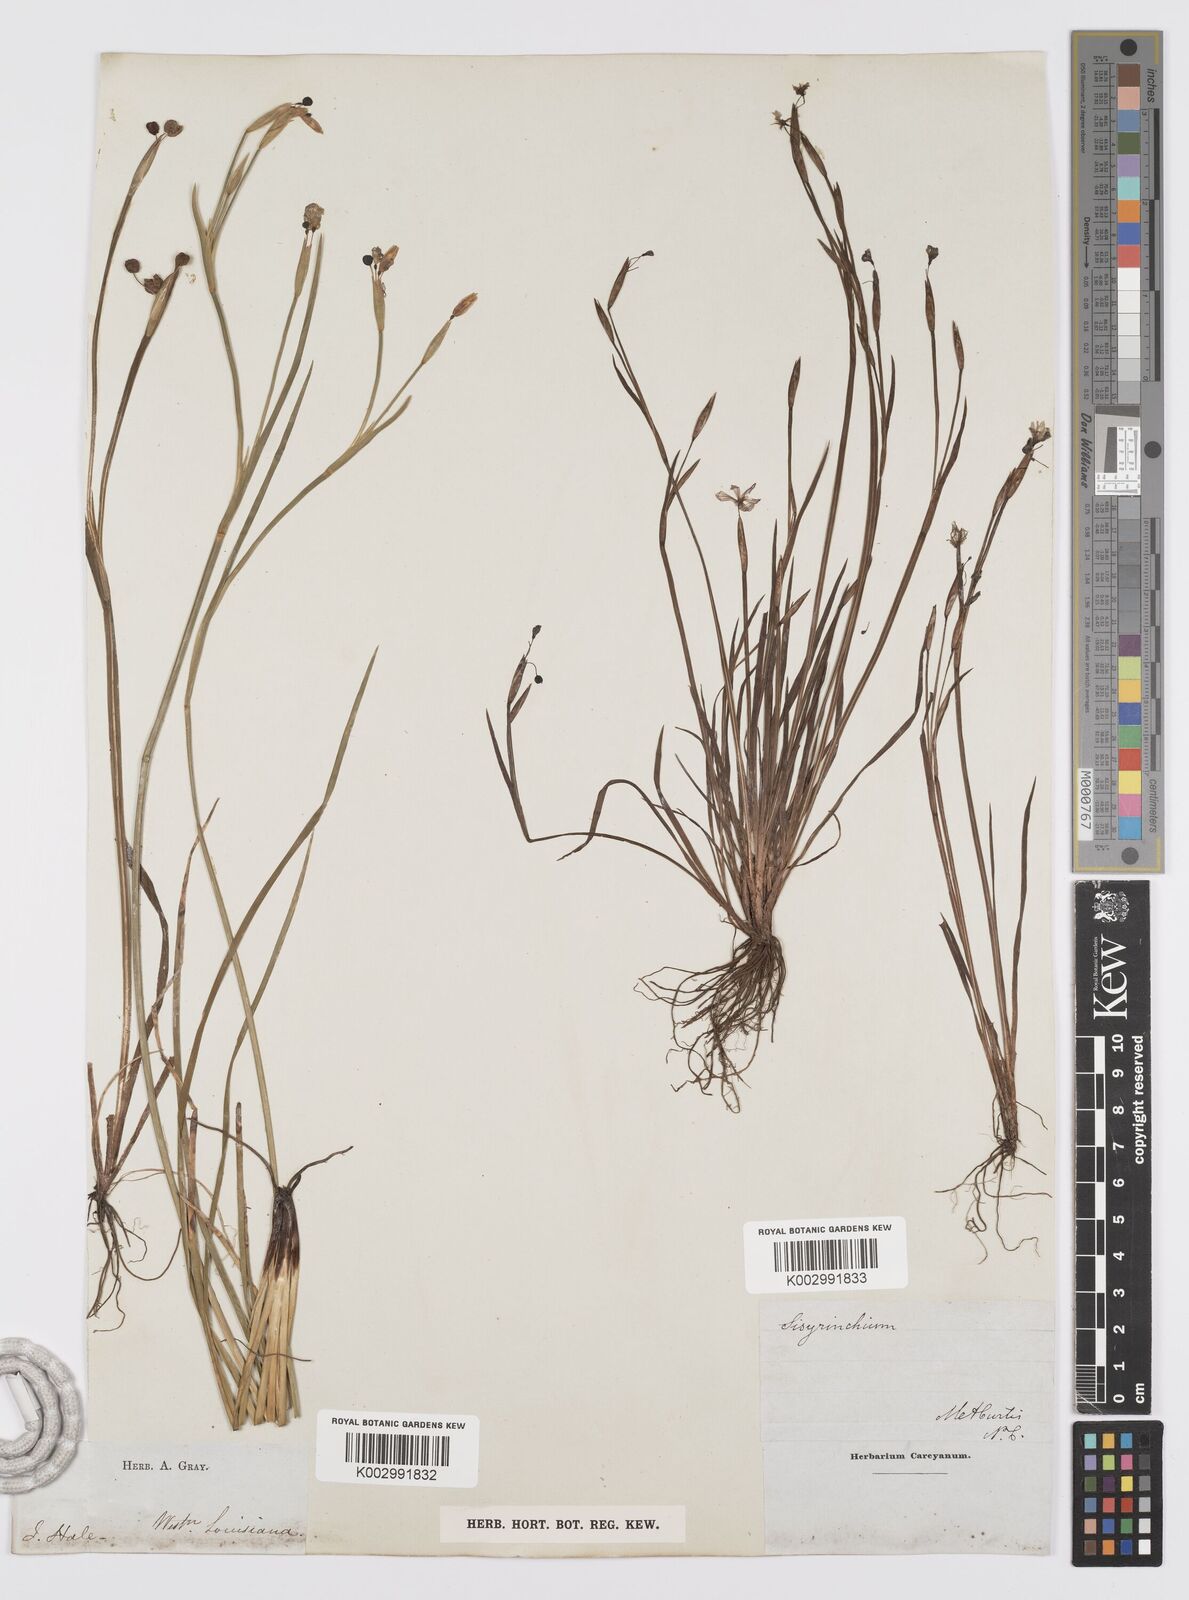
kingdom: Plantae
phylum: Tracheophyta
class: Liliopsida
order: Asparagales
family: Iridaceae
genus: Sisyrinchium
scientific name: Sisyrinchium bermudiana
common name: Blue-eyed-grass
